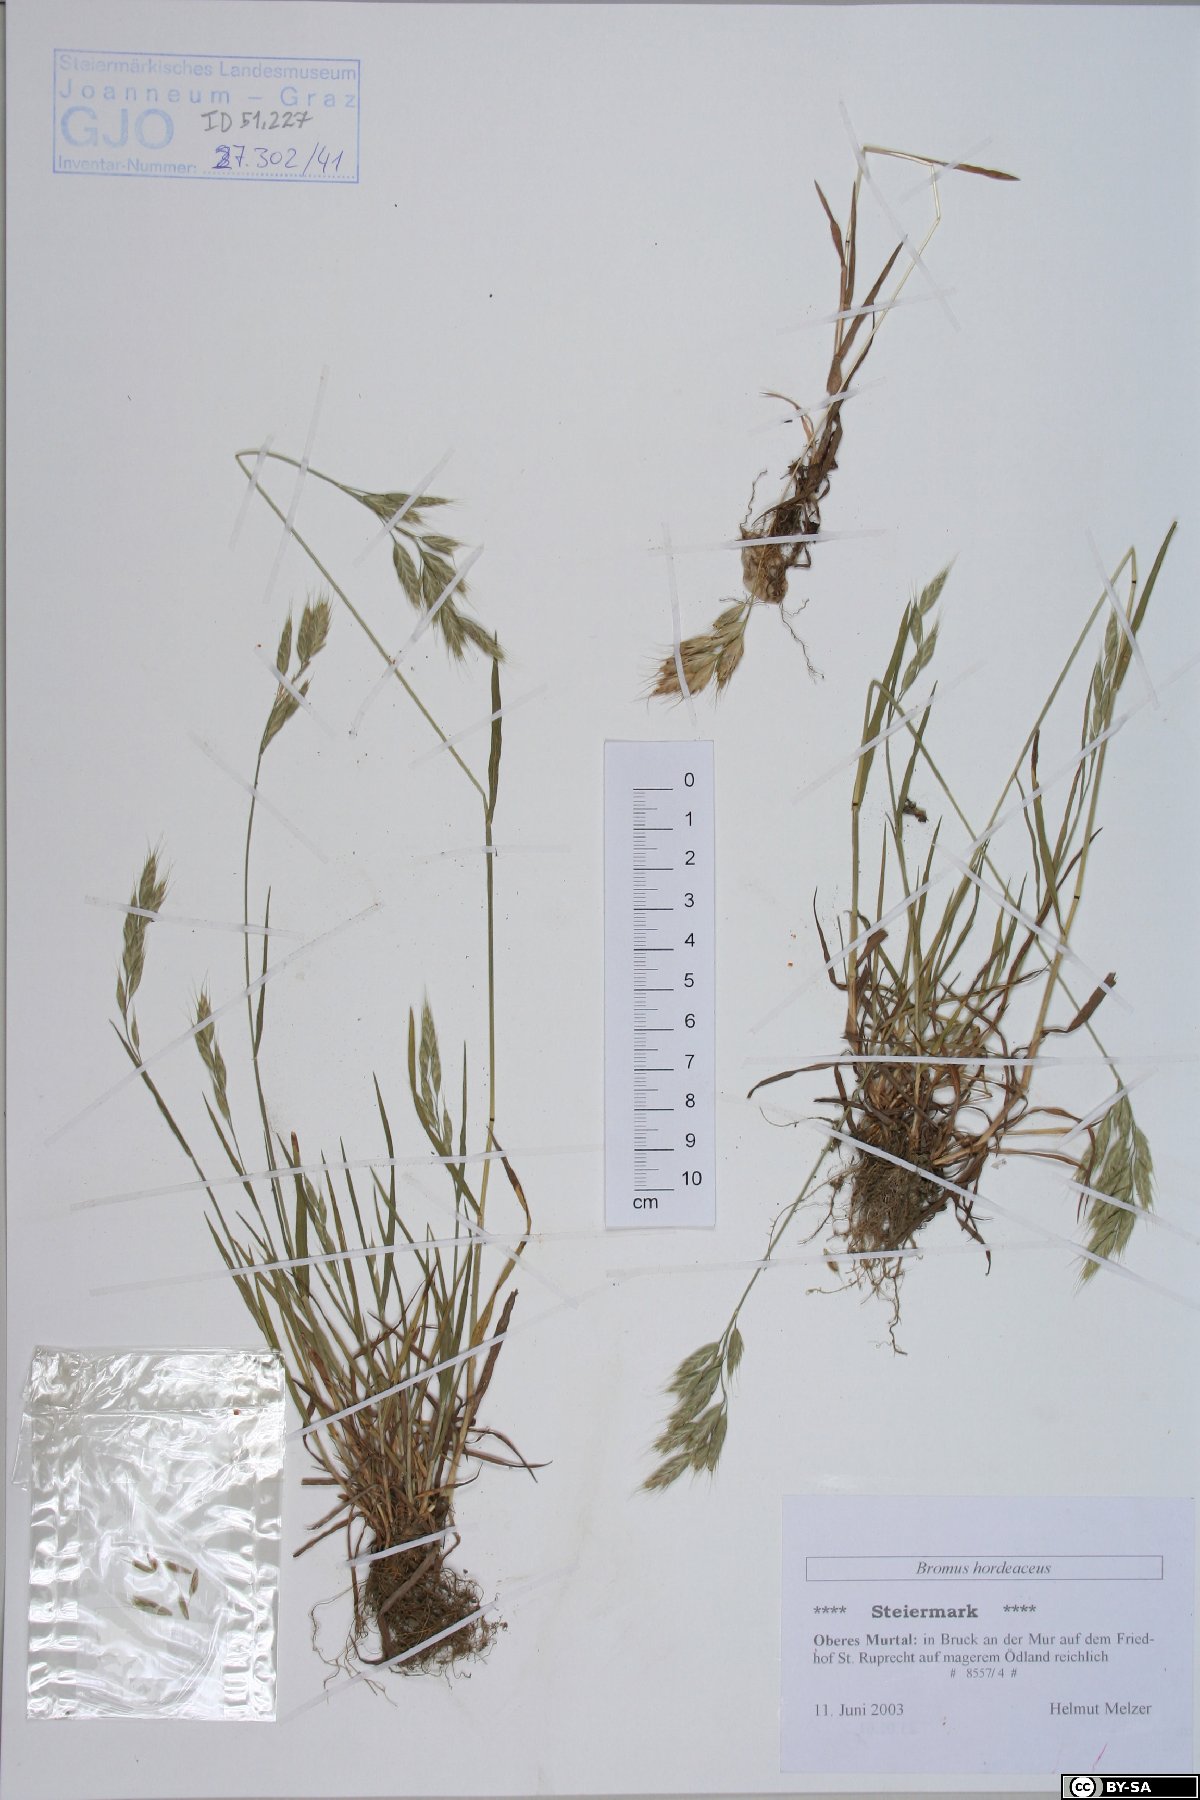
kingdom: Plantae
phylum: Tracheophyta
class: Liliopsida
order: Poales
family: Poaceae
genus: Bromus
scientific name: Bromus hordeaceus
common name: Soft brome
